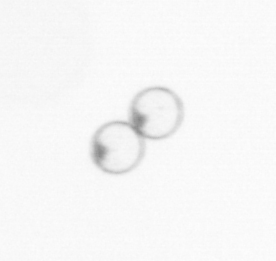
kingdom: Chromista
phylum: Myzozoa
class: Dinophyceae
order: Noctilucales
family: Noctilucaceae
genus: Noctiluca
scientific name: Noctiluca scintillans
